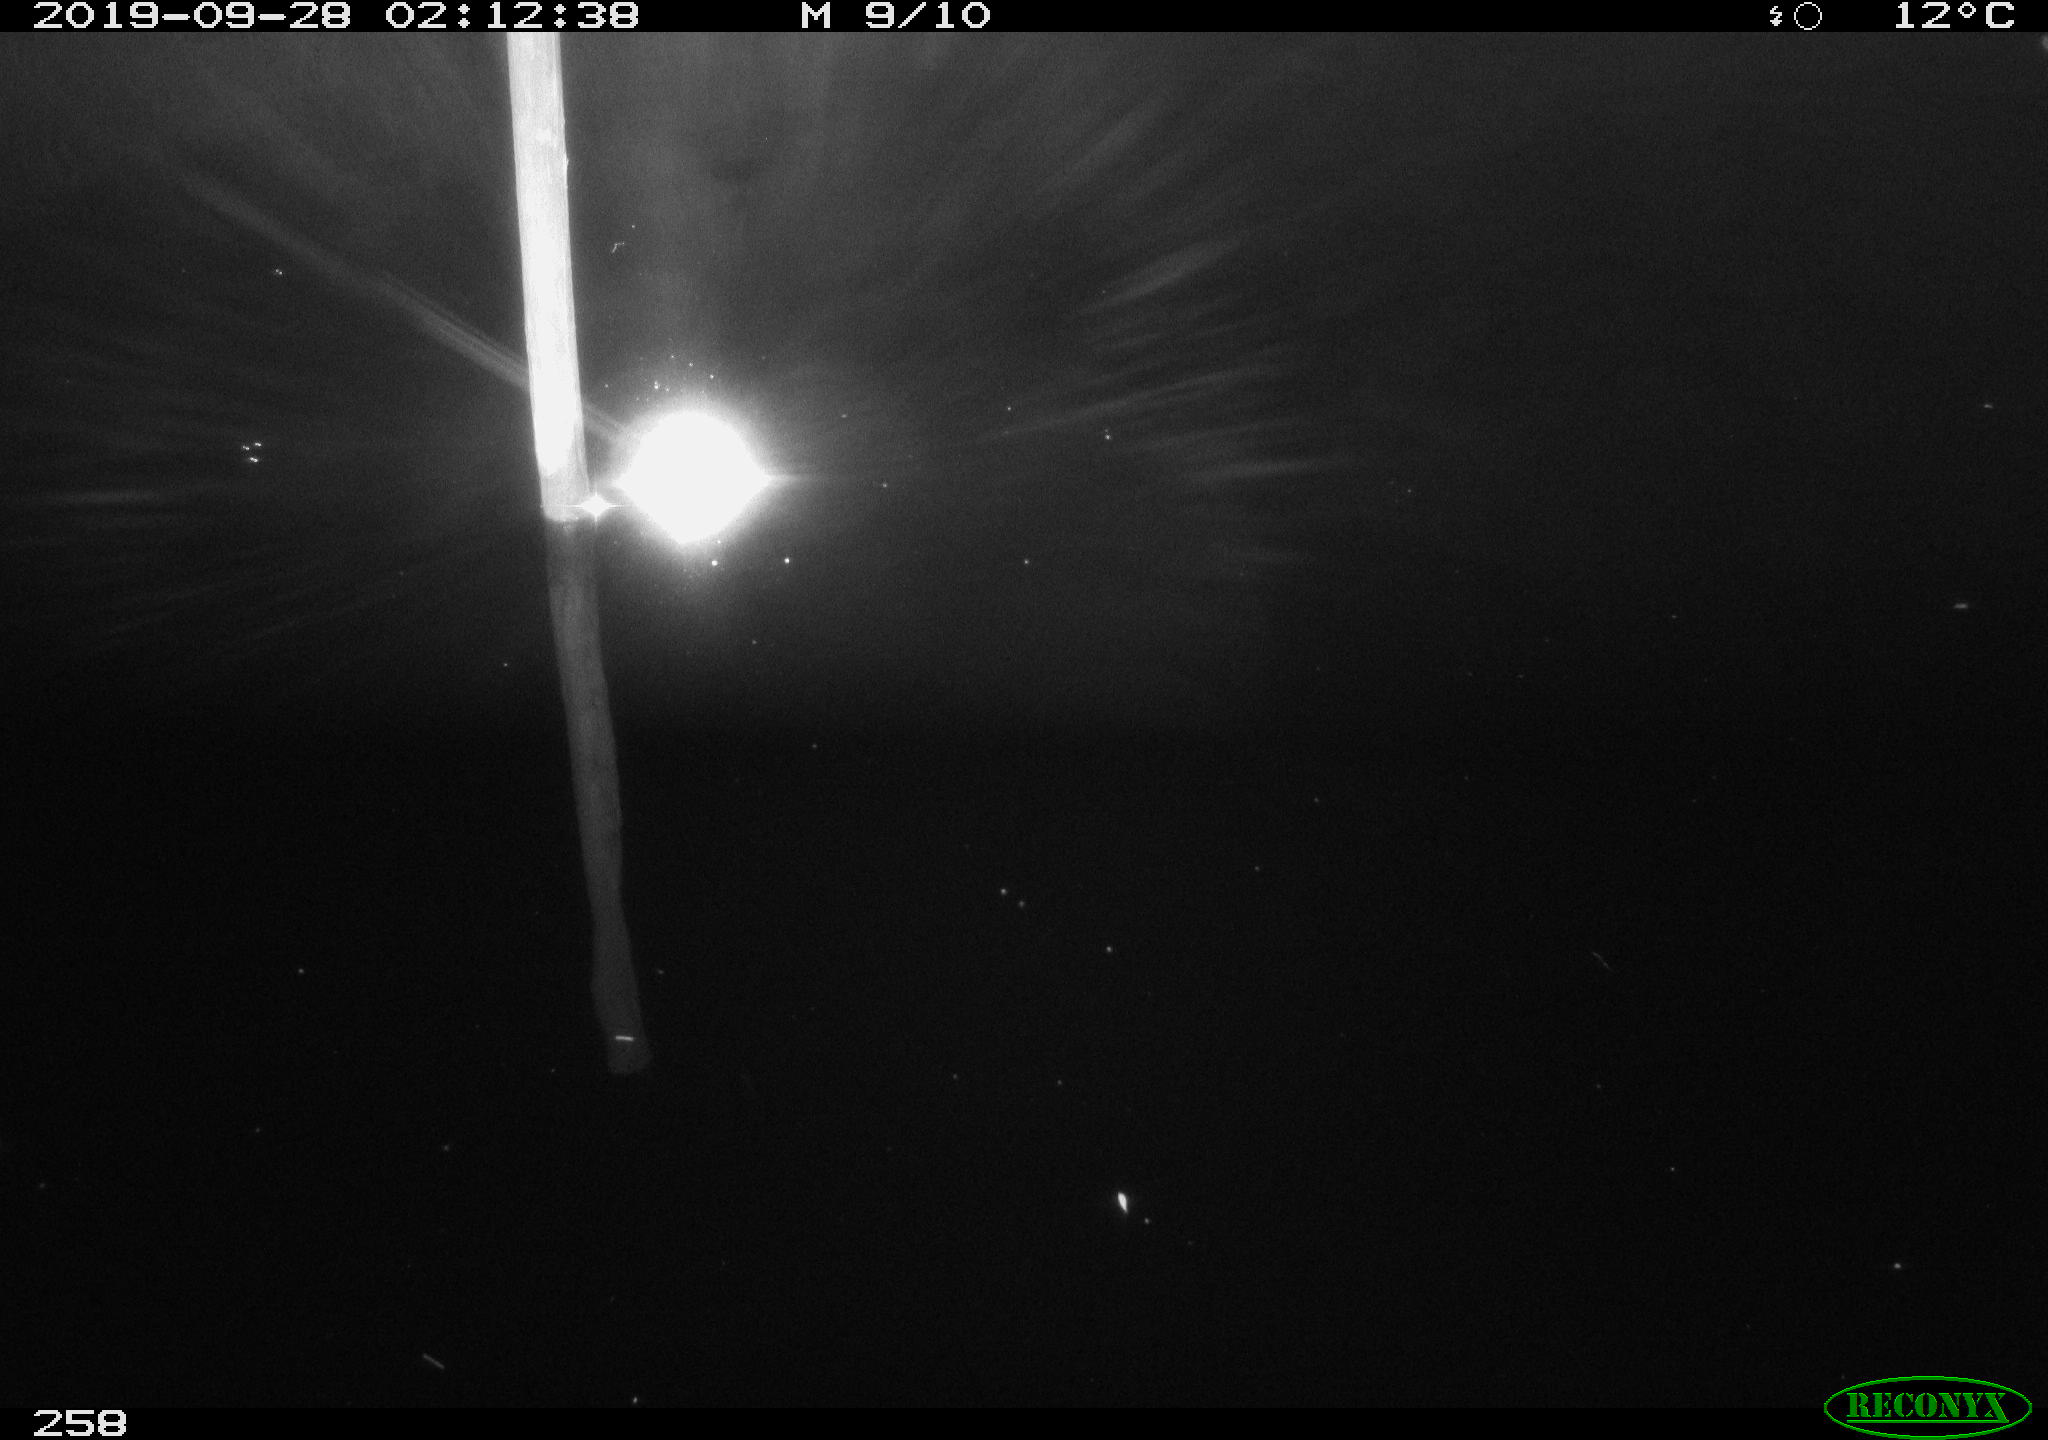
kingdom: Animalia
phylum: Chordata
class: Aves
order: Anseriformes
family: Anatidae
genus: Anas
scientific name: Anas platyrhynchos
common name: Mallard
